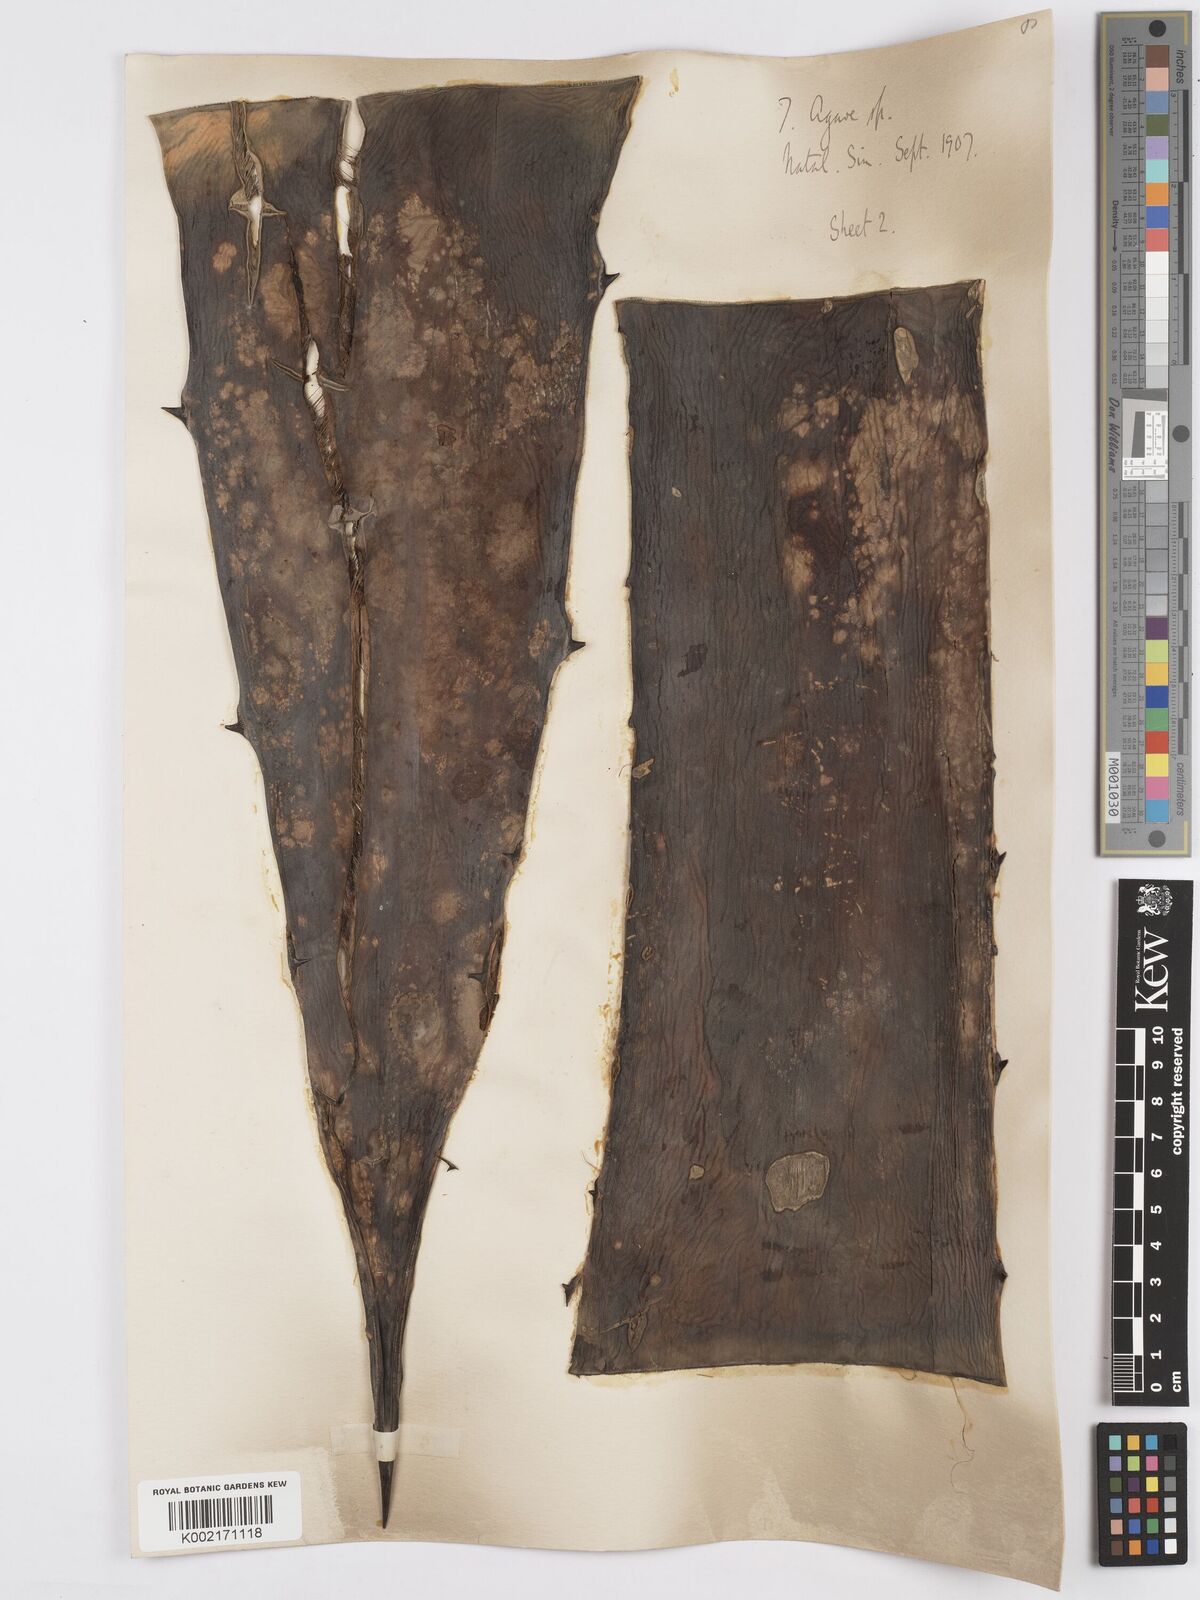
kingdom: Plantae
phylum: Tracheophyta
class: Liliopsida
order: Asparagales
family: Asparagaceae
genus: Agave
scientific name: Agave
